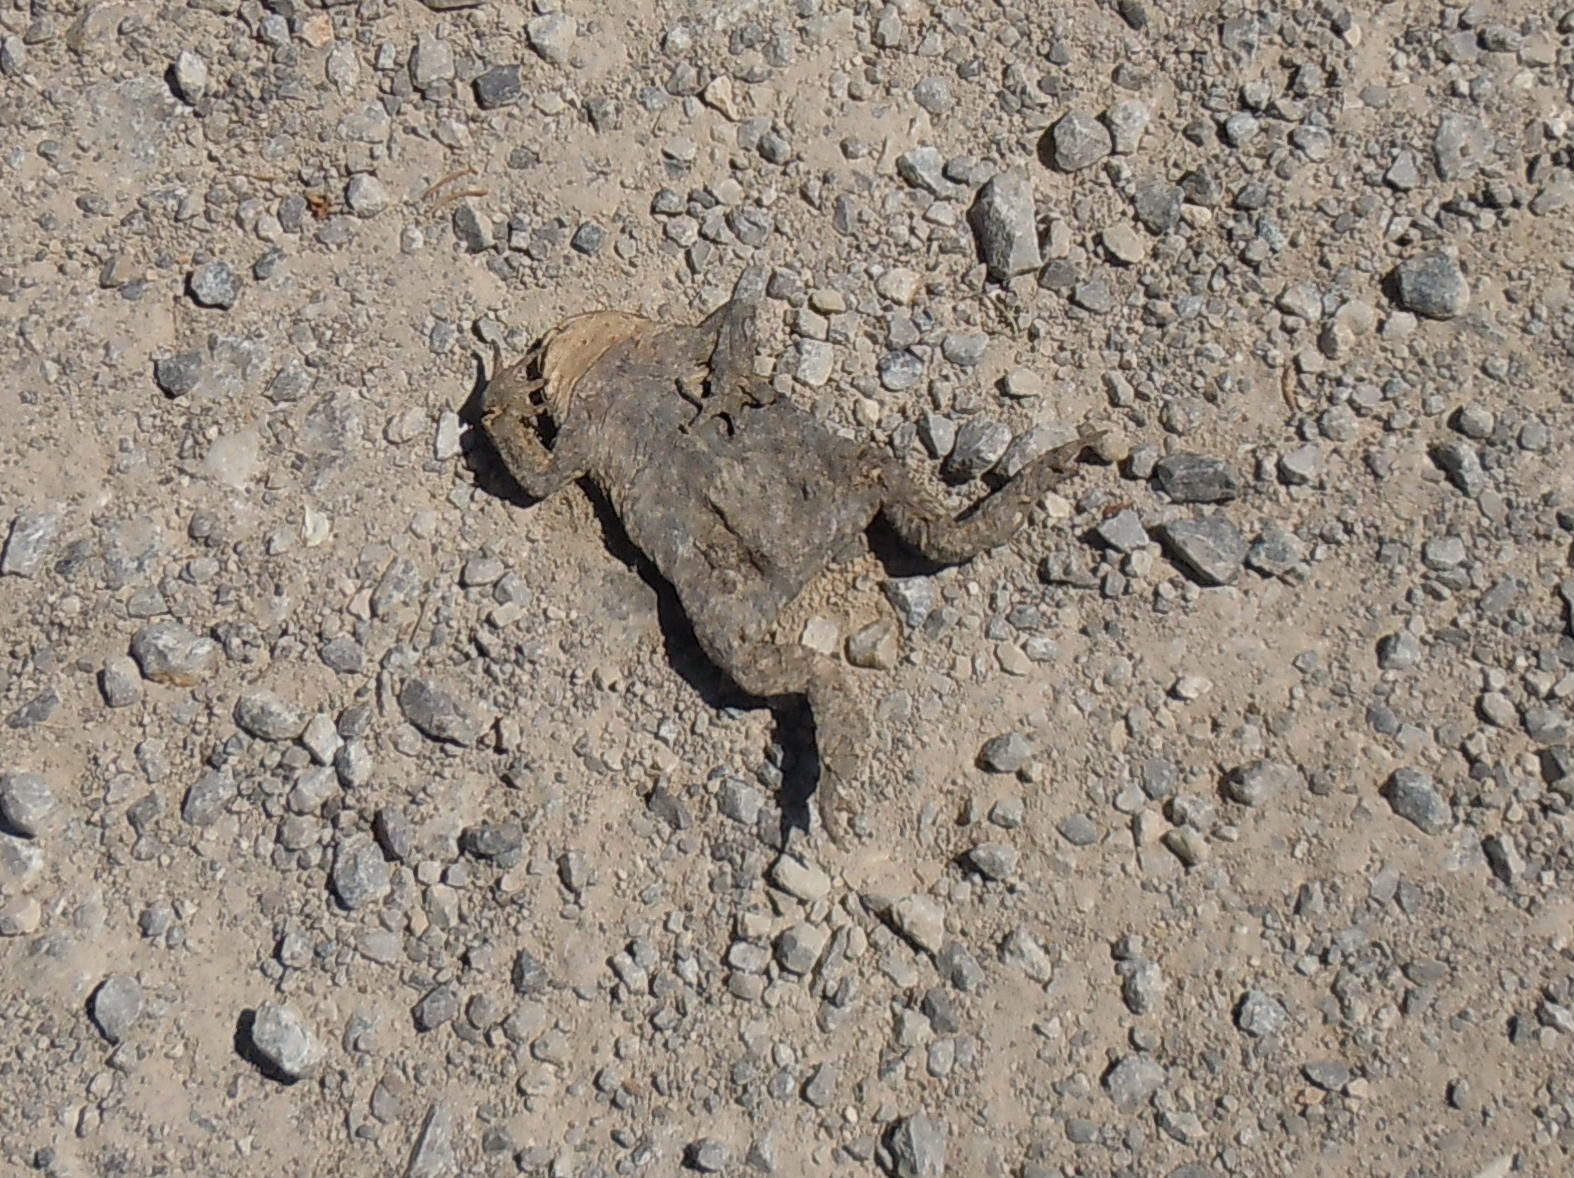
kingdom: Animalia
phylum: Chordata
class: Amphibia
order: Anura
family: Bufonidae
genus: Bufo
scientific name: Bufo bufo
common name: Common toad
